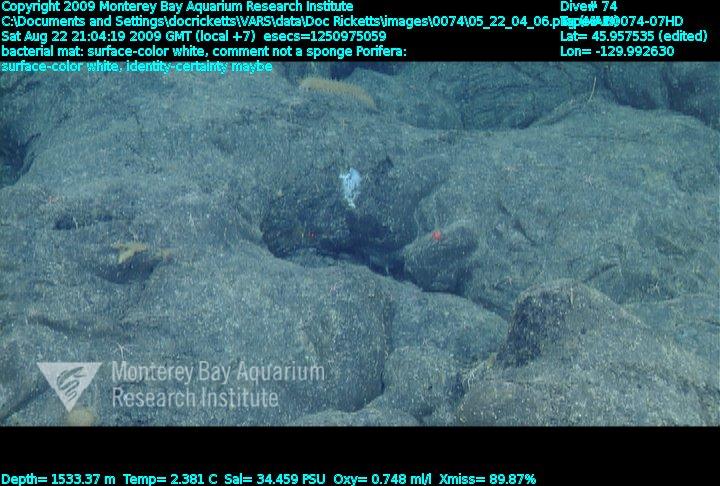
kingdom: Animalia
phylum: Porifera
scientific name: Porifera
